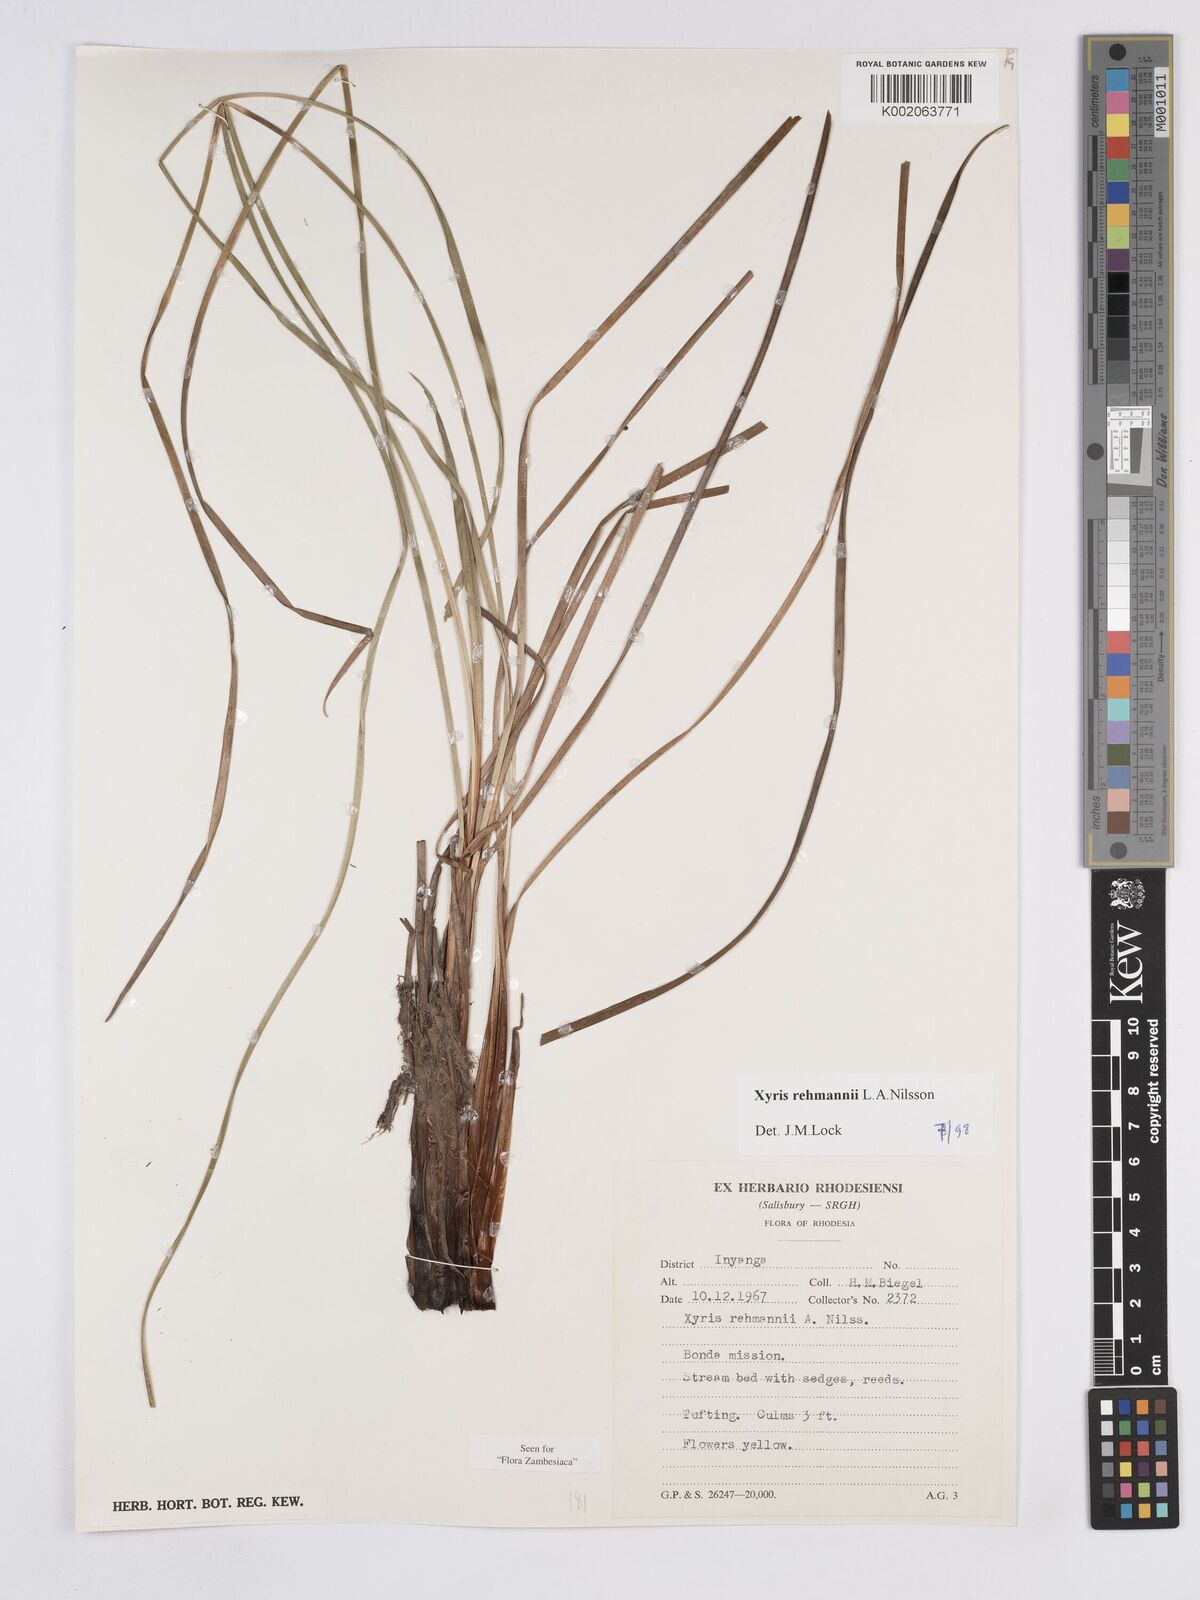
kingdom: Plantae
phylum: Tracheophyta
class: Liliopsida
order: Poales
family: Xyridaceae
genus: Xyris
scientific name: Xyris rehmannii
